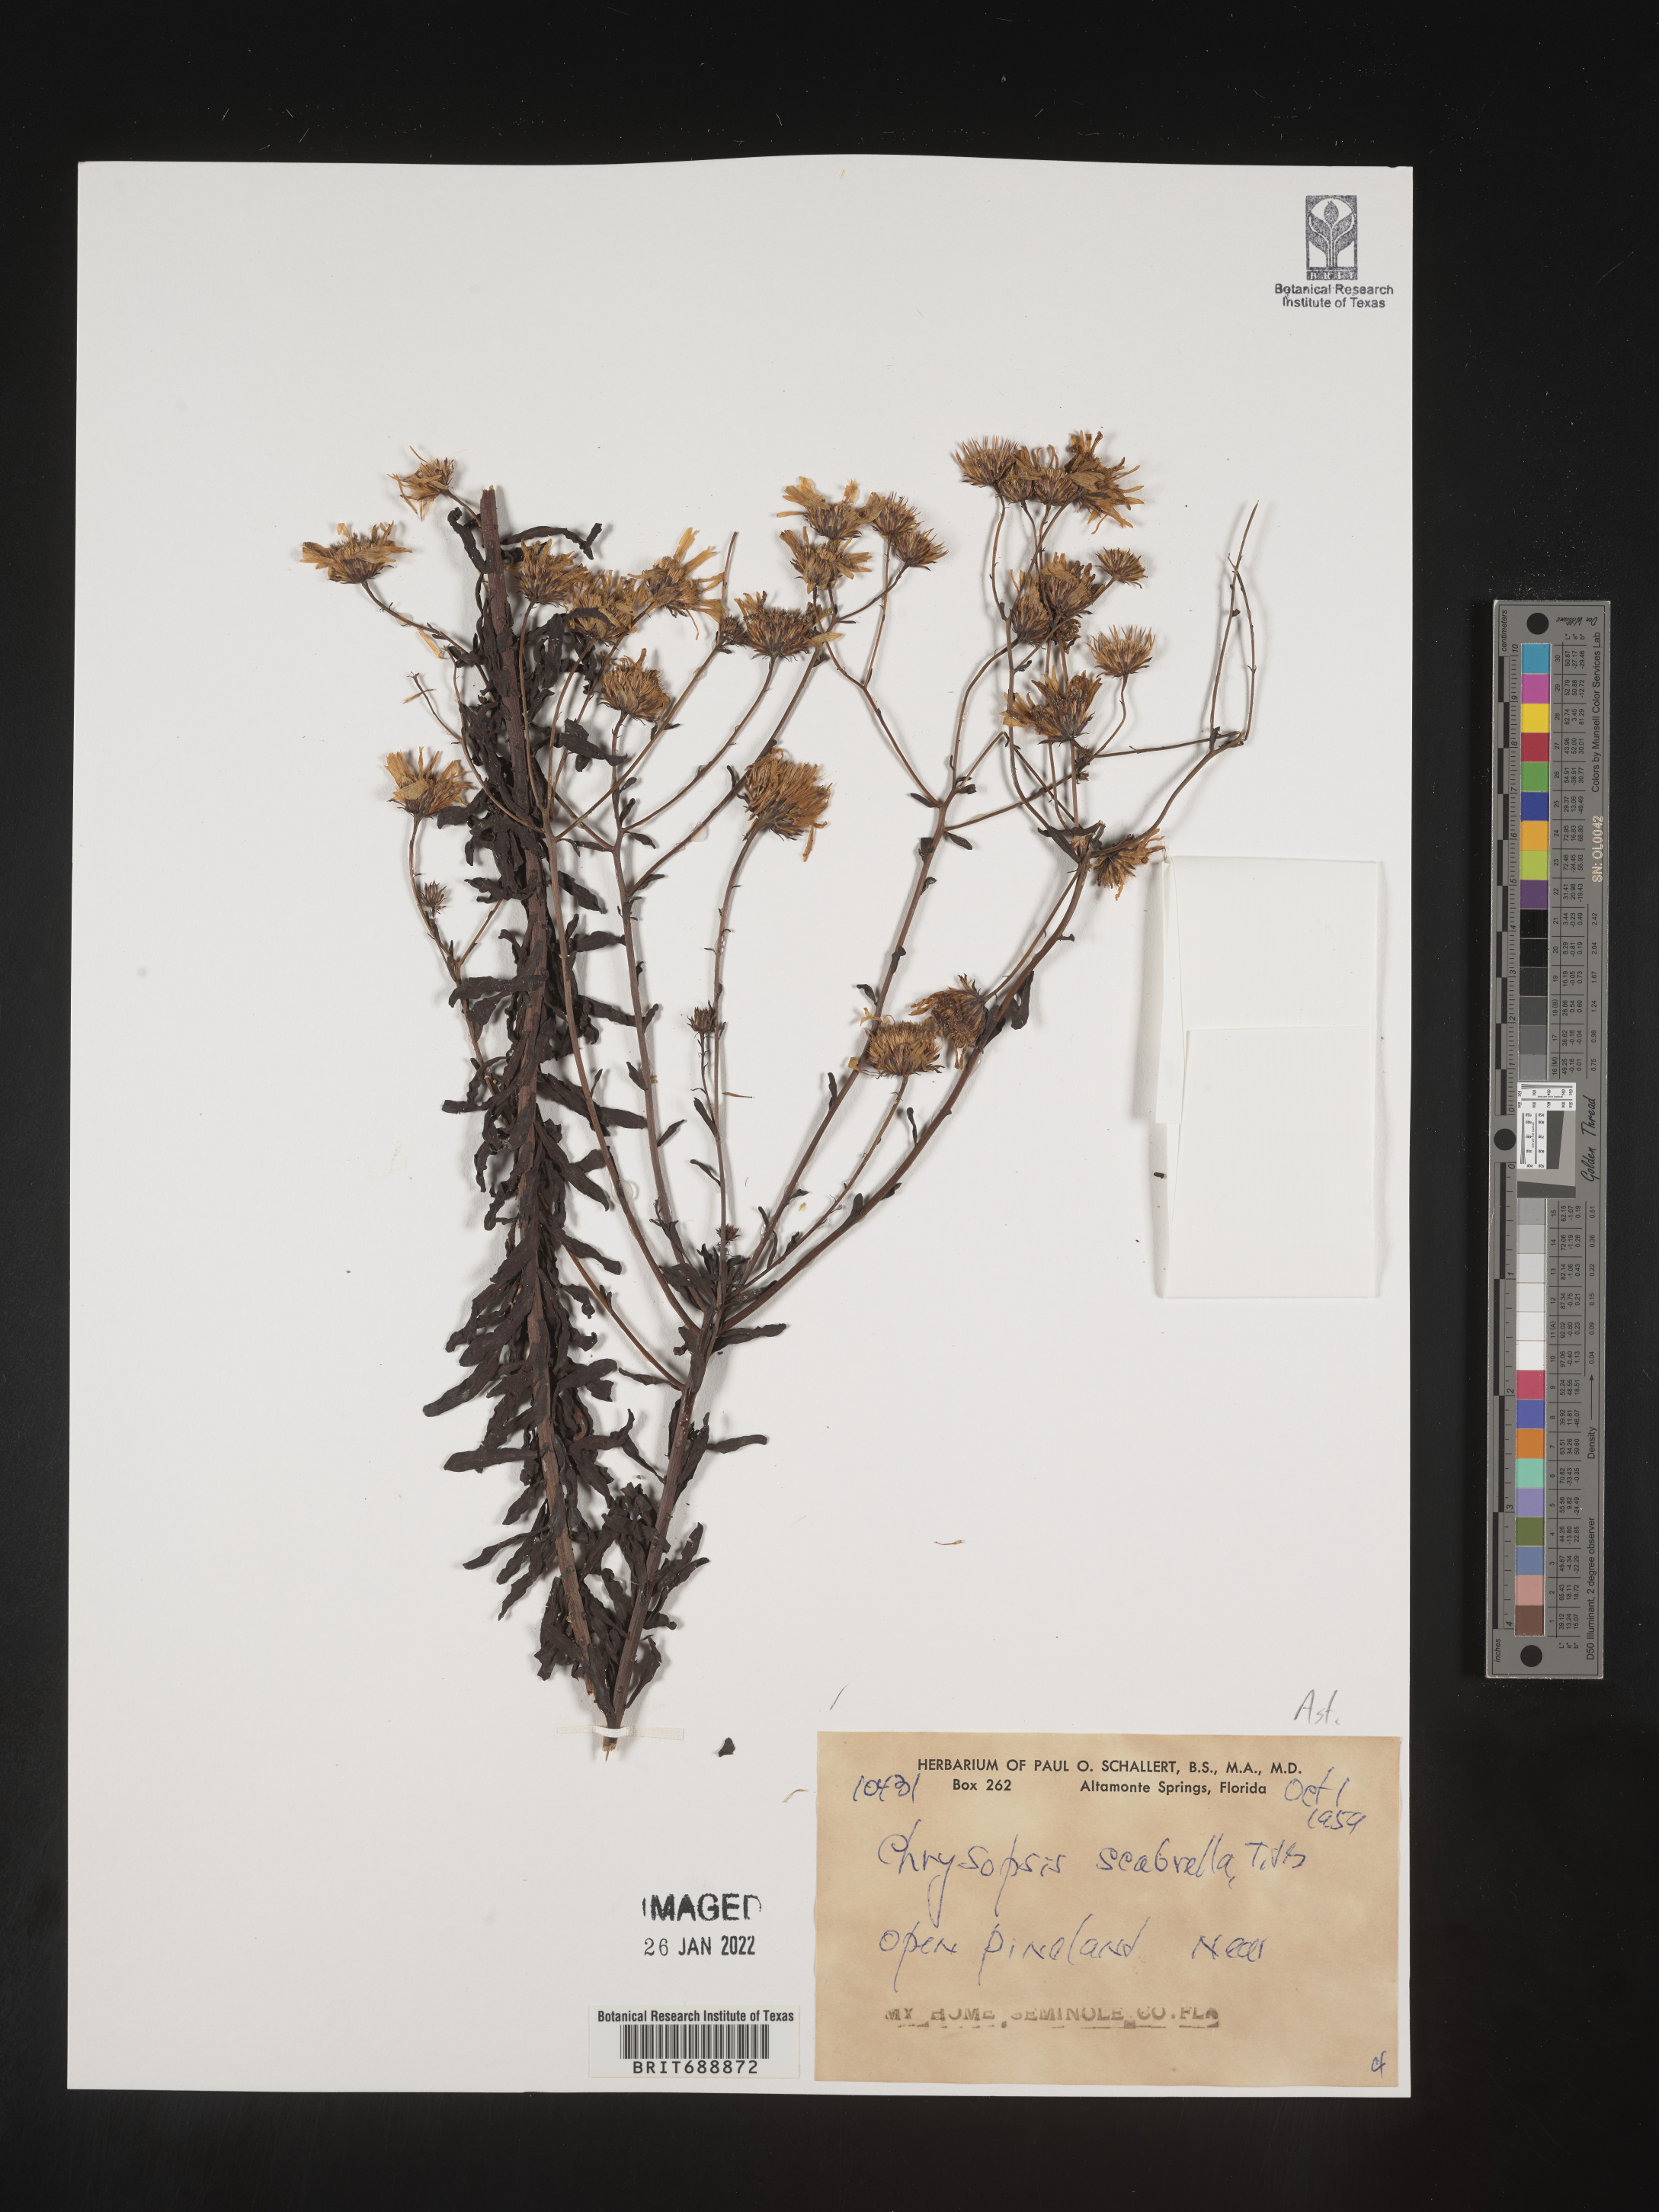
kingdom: Plantae
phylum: Tracheophyta
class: Magnoliopsida
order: Asterales
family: Asteraceae
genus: Chrysopsis
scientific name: Chrysopsis scabrella
